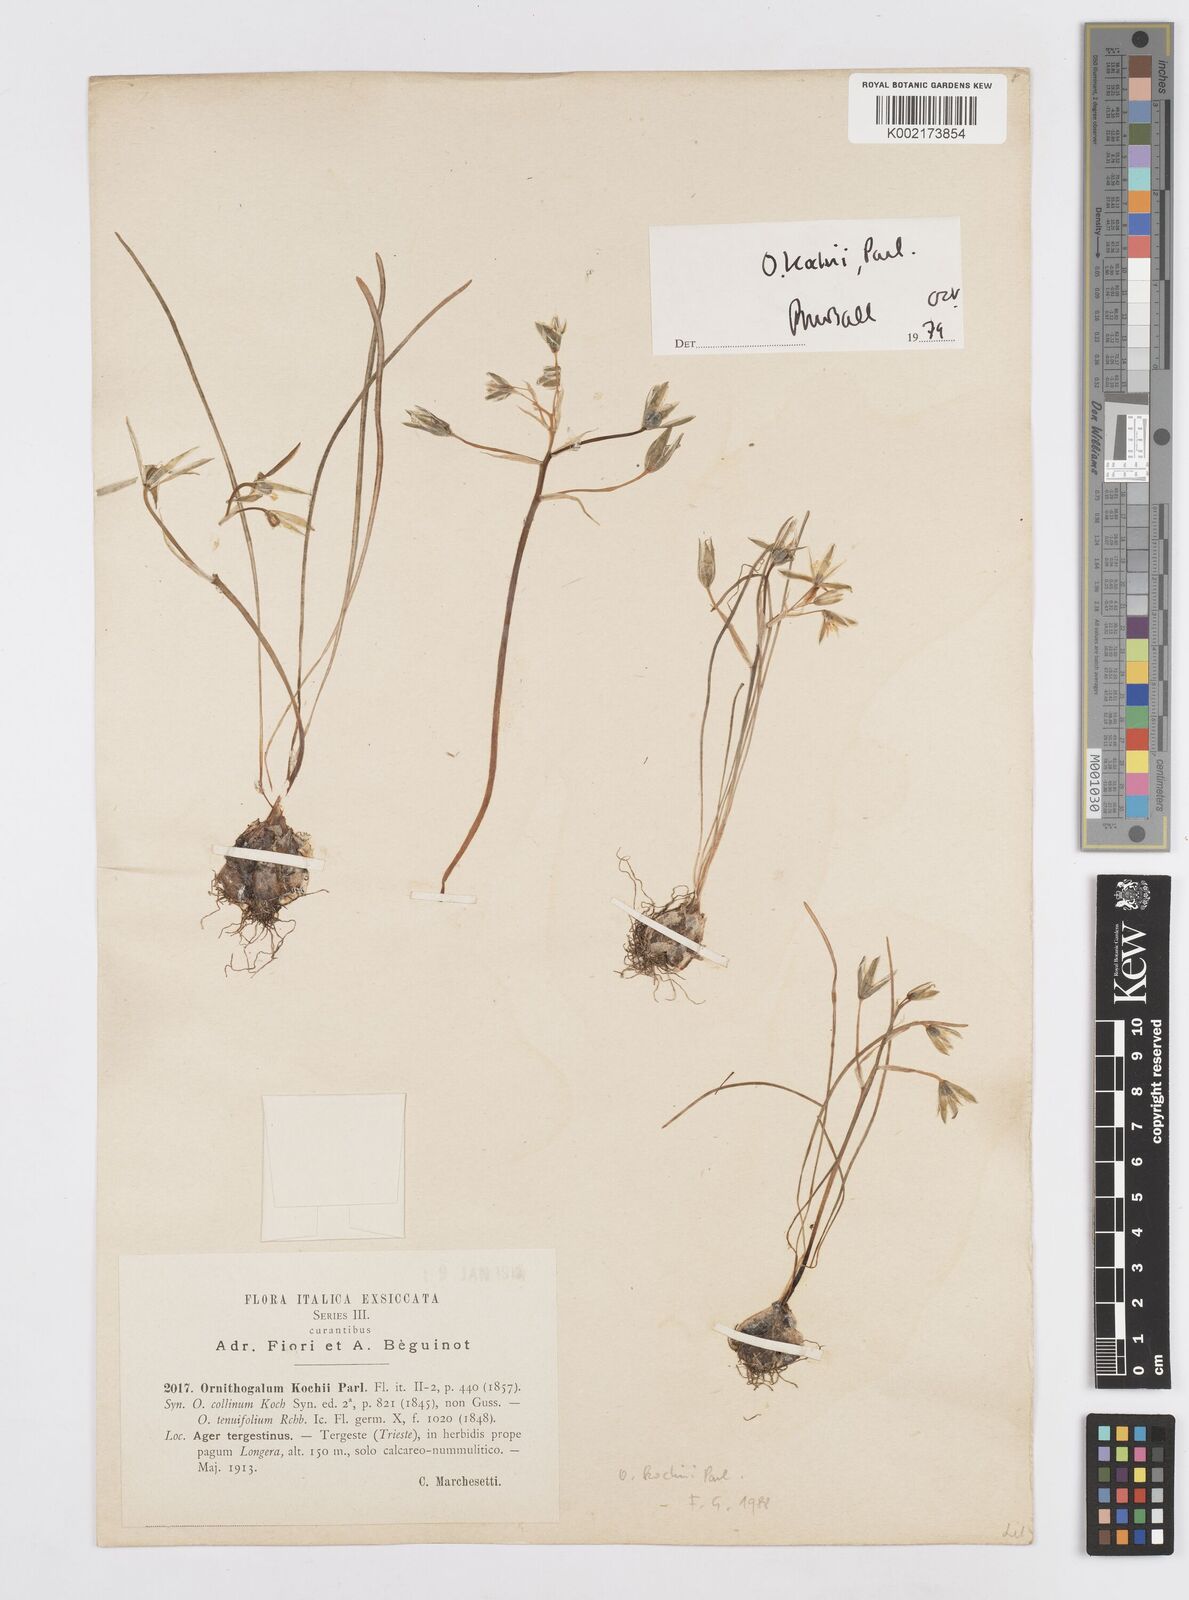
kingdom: Plantae
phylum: Tracheophyta
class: Liliopsida
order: Asparagales
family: Asparagaceae
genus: Ornithogalum
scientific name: Ornithogalum orthophyllum
